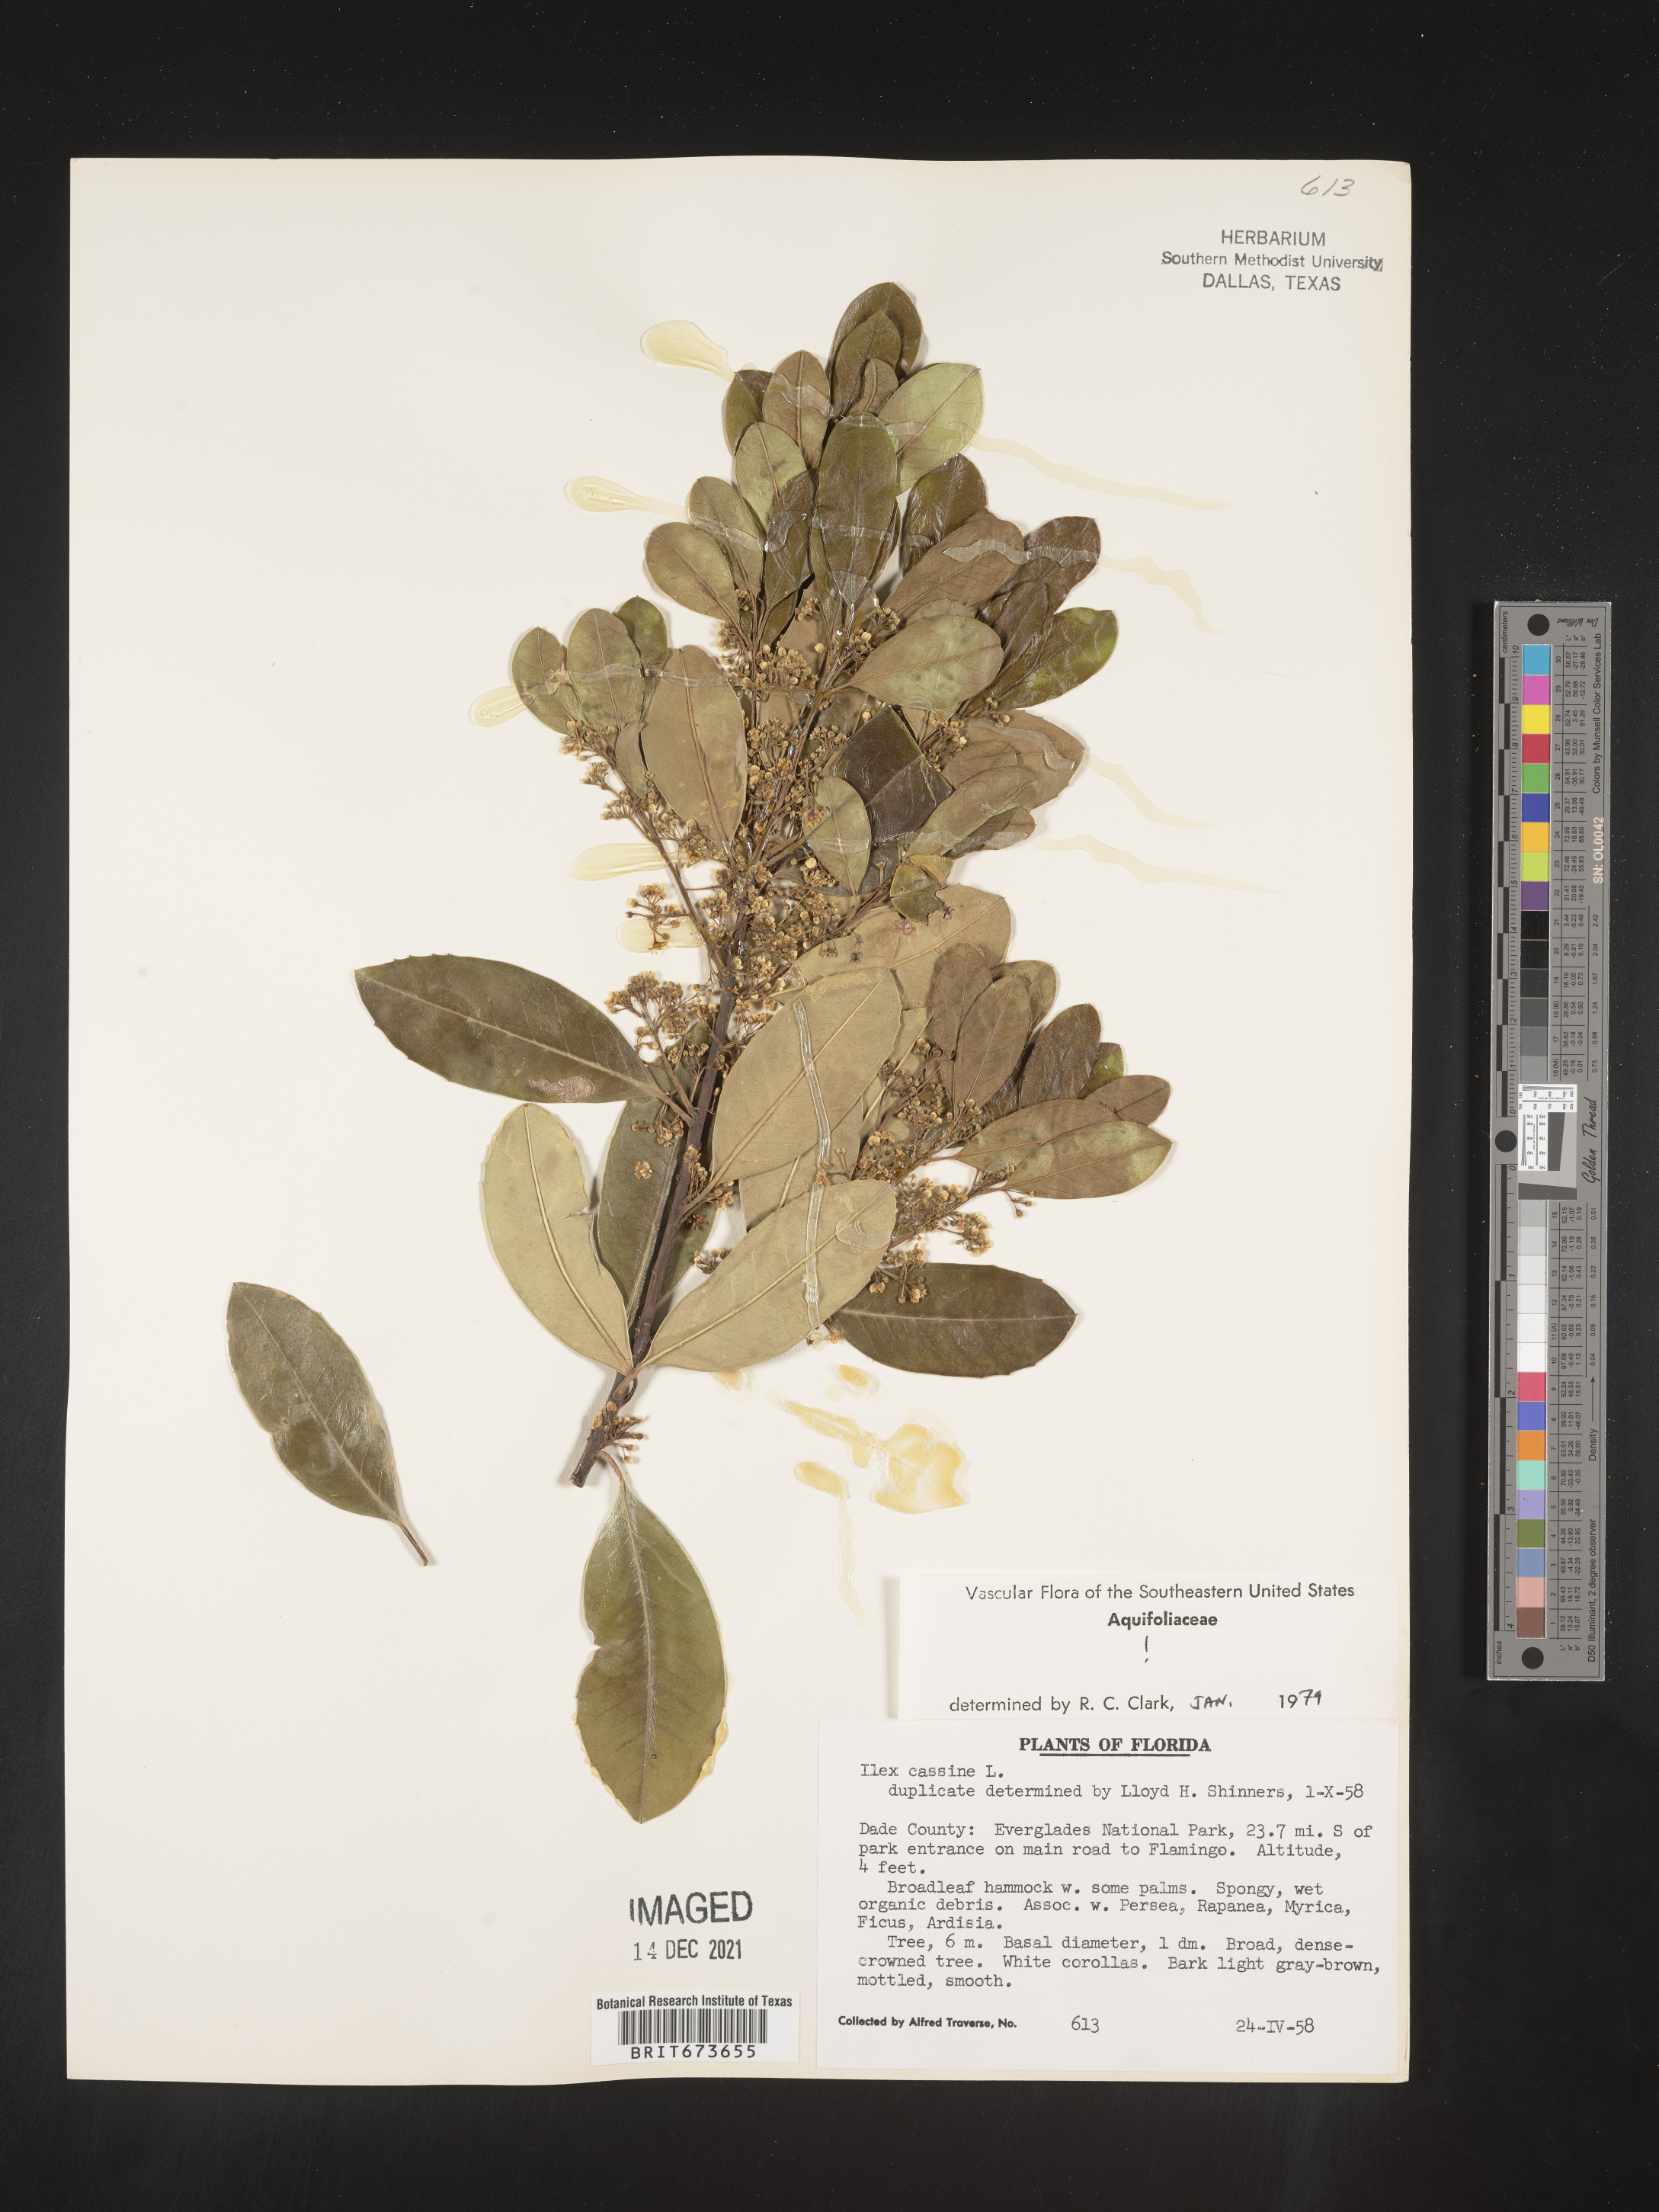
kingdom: Plantae
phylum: Tracheophyta
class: Magnoliopsida
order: Aquifoliales
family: Aquifoliaceae
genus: Ilex
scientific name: Ilex cassine
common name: Dahoon
